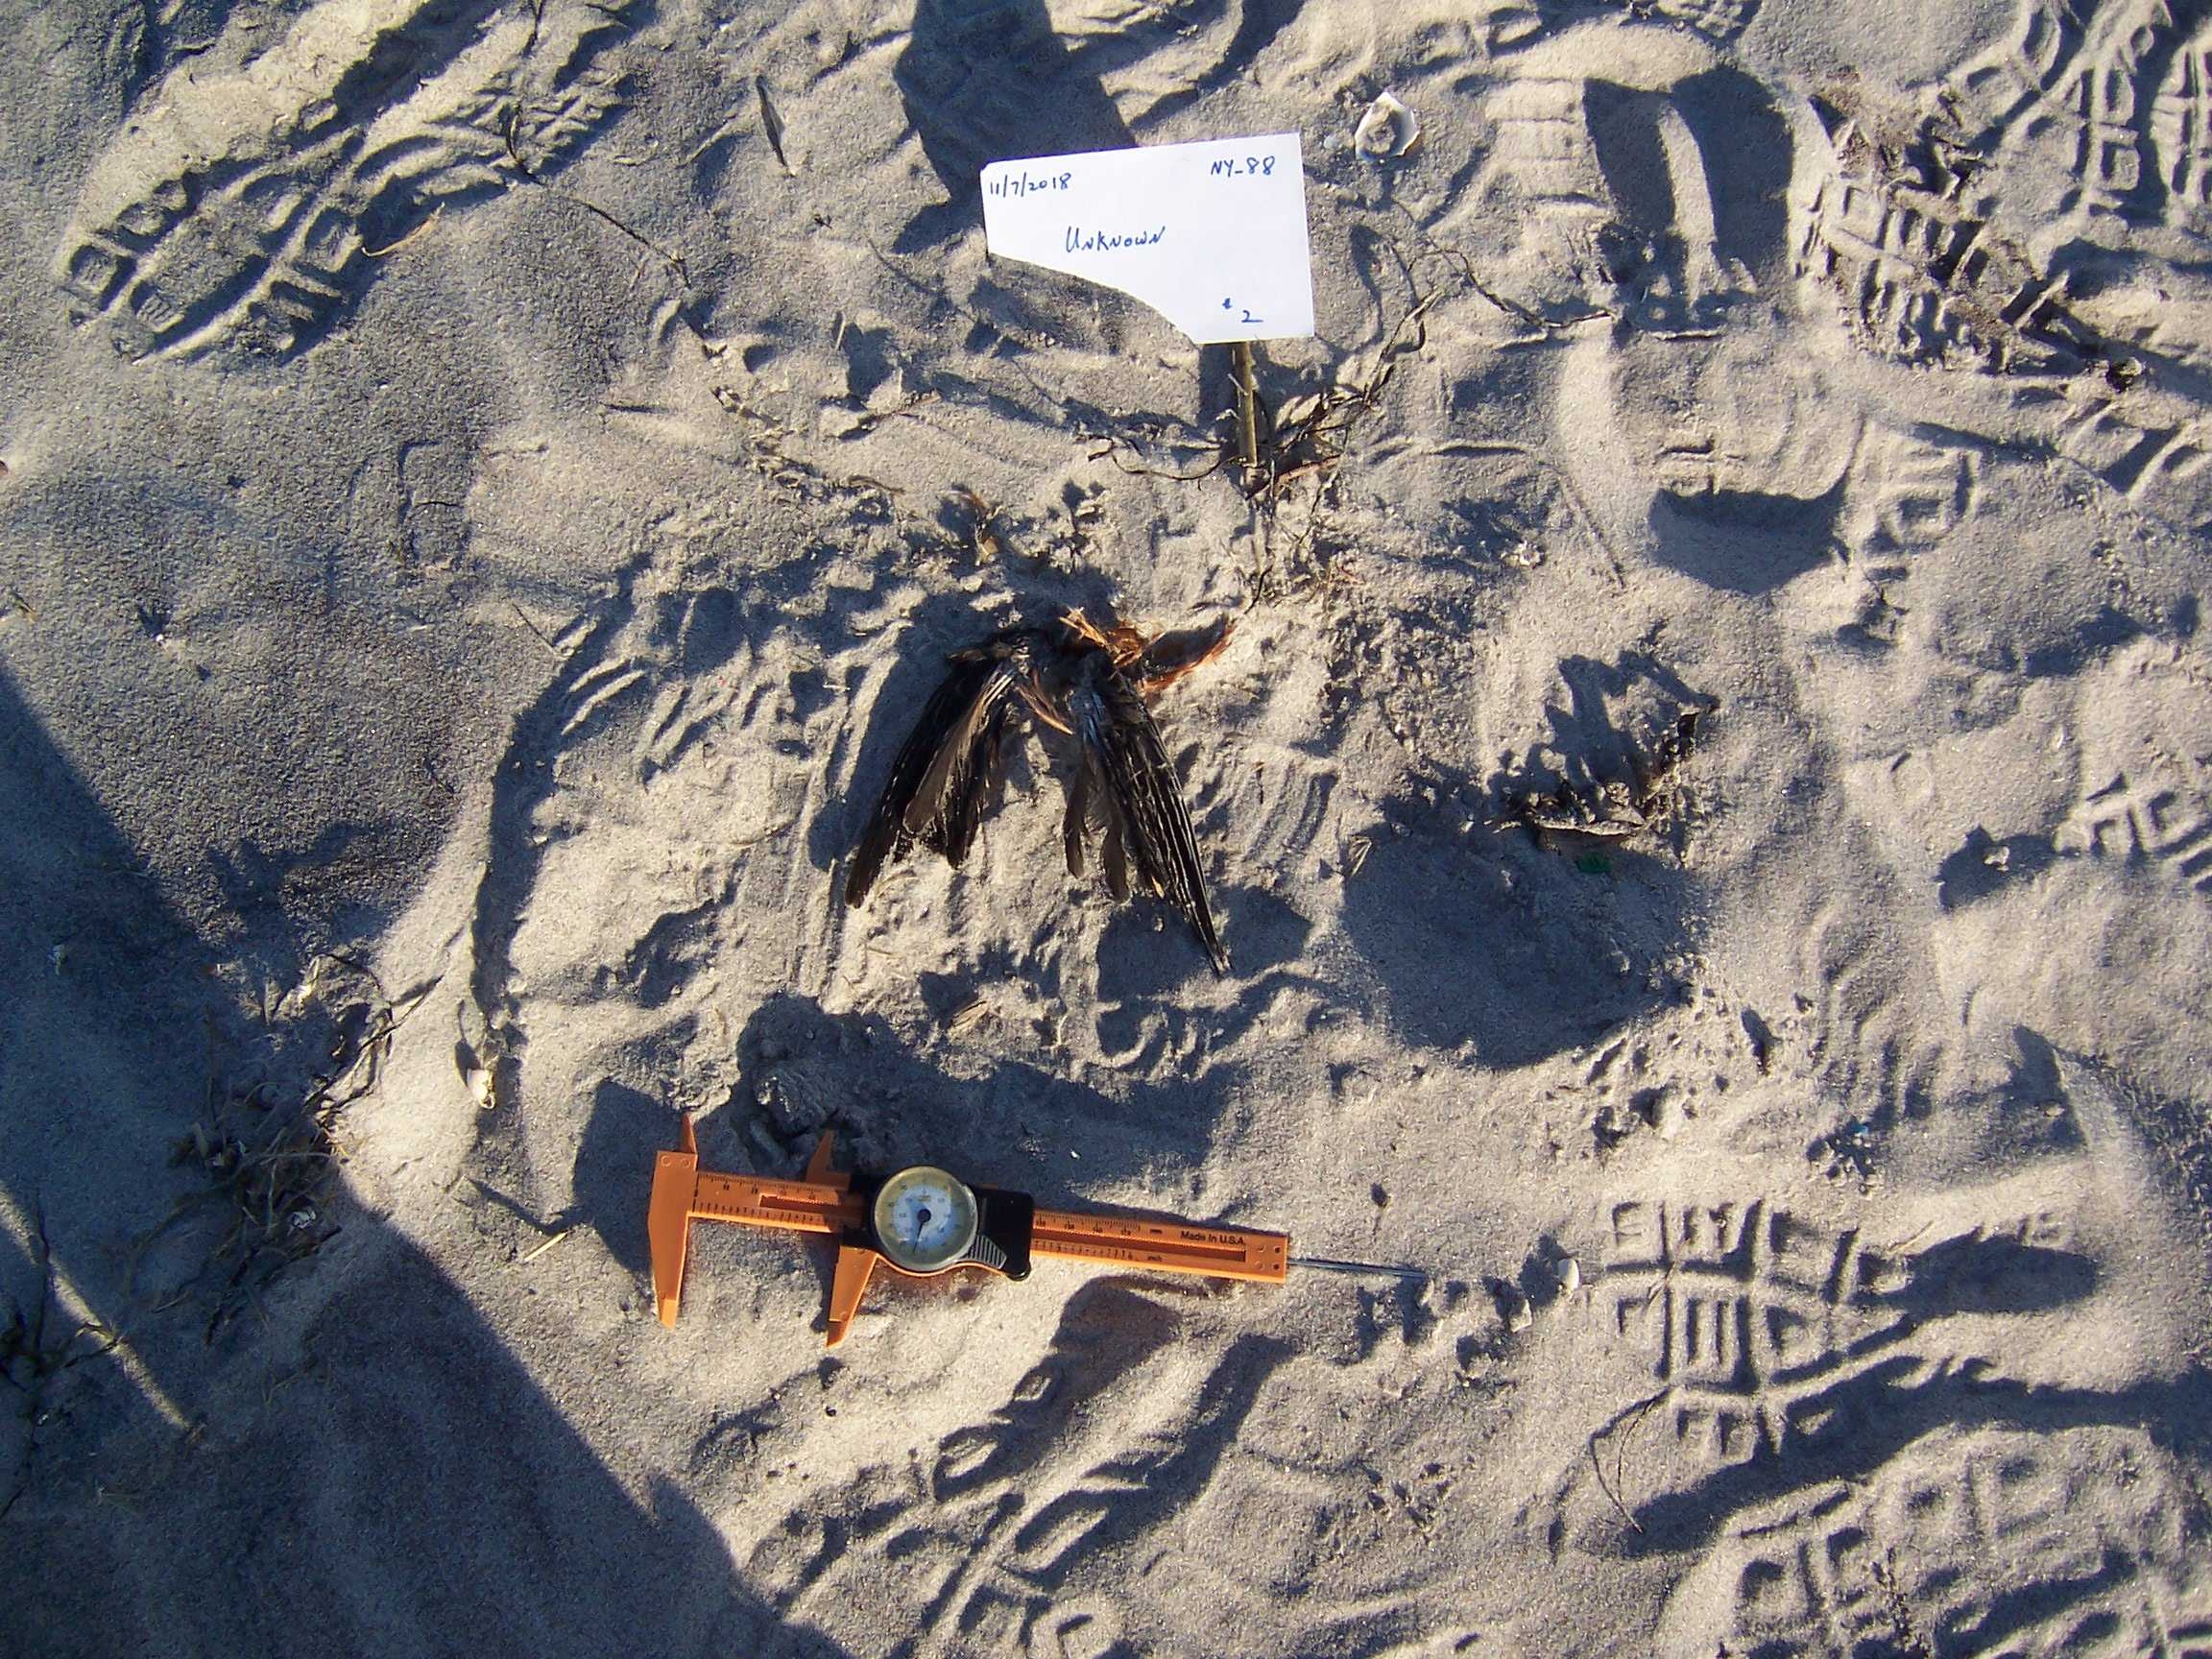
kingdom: Animalia
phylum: Chordata
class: Aves
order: Charadriiformes
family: Scolopacidae
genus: Calidris
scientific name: Calidris alba
